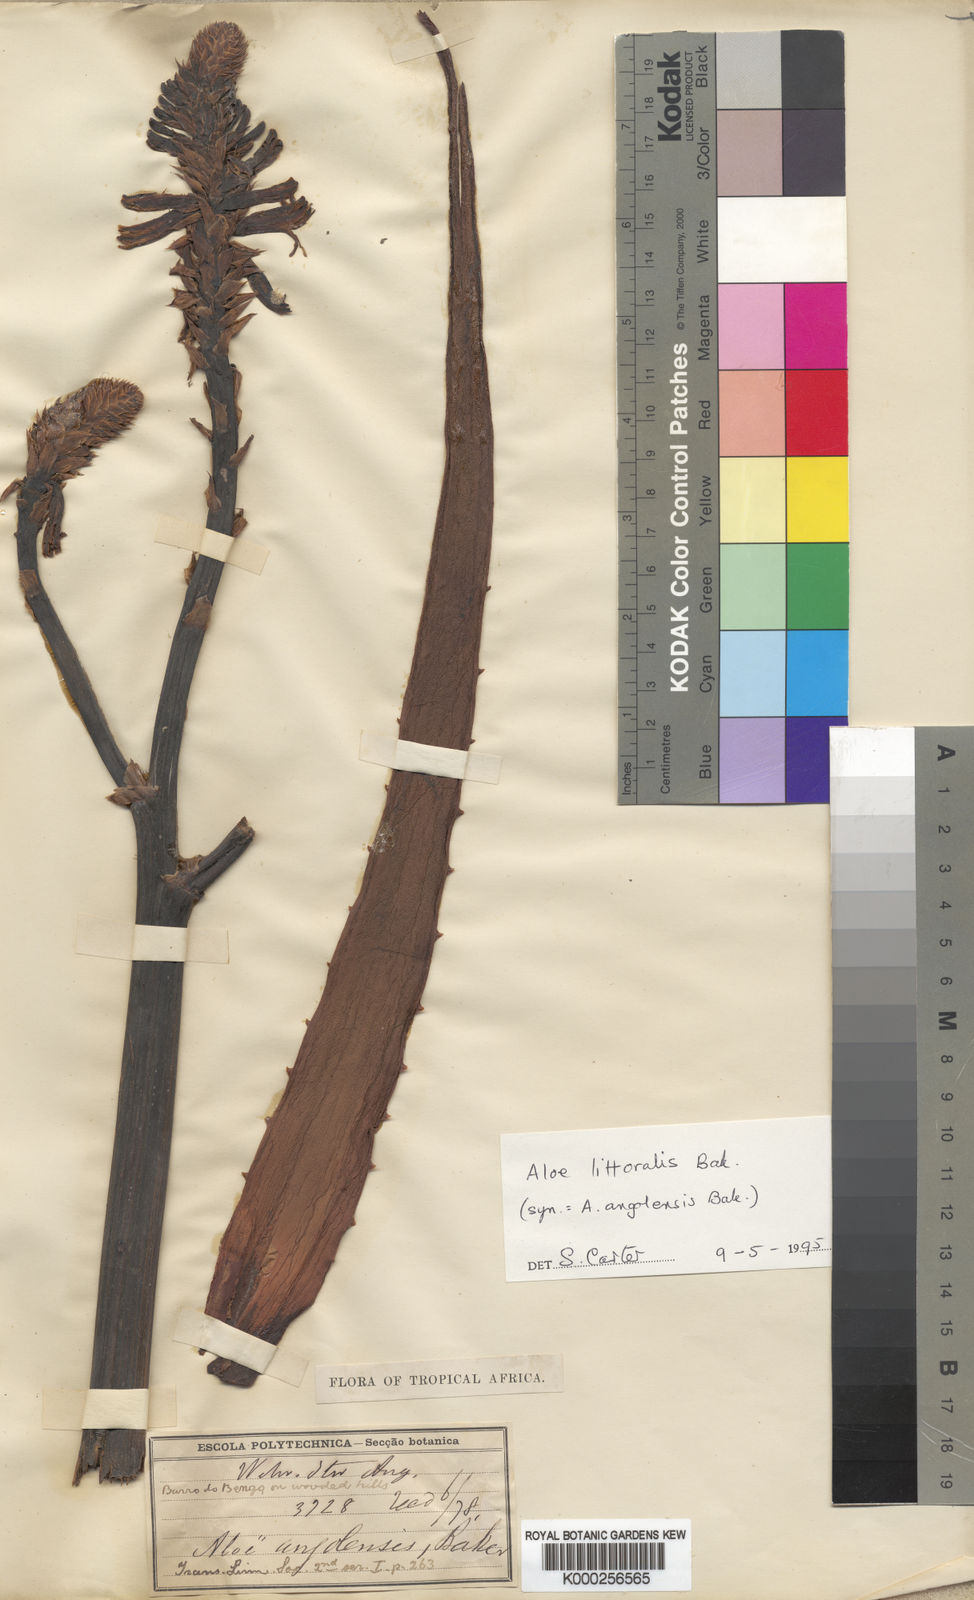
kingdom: Plantae
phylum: Tracheophyta
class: Liliopsida
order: Asparagales
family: Asphodelaceae
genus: Aloe
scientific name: Aloe littoralis
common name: Luanda tree aloe
